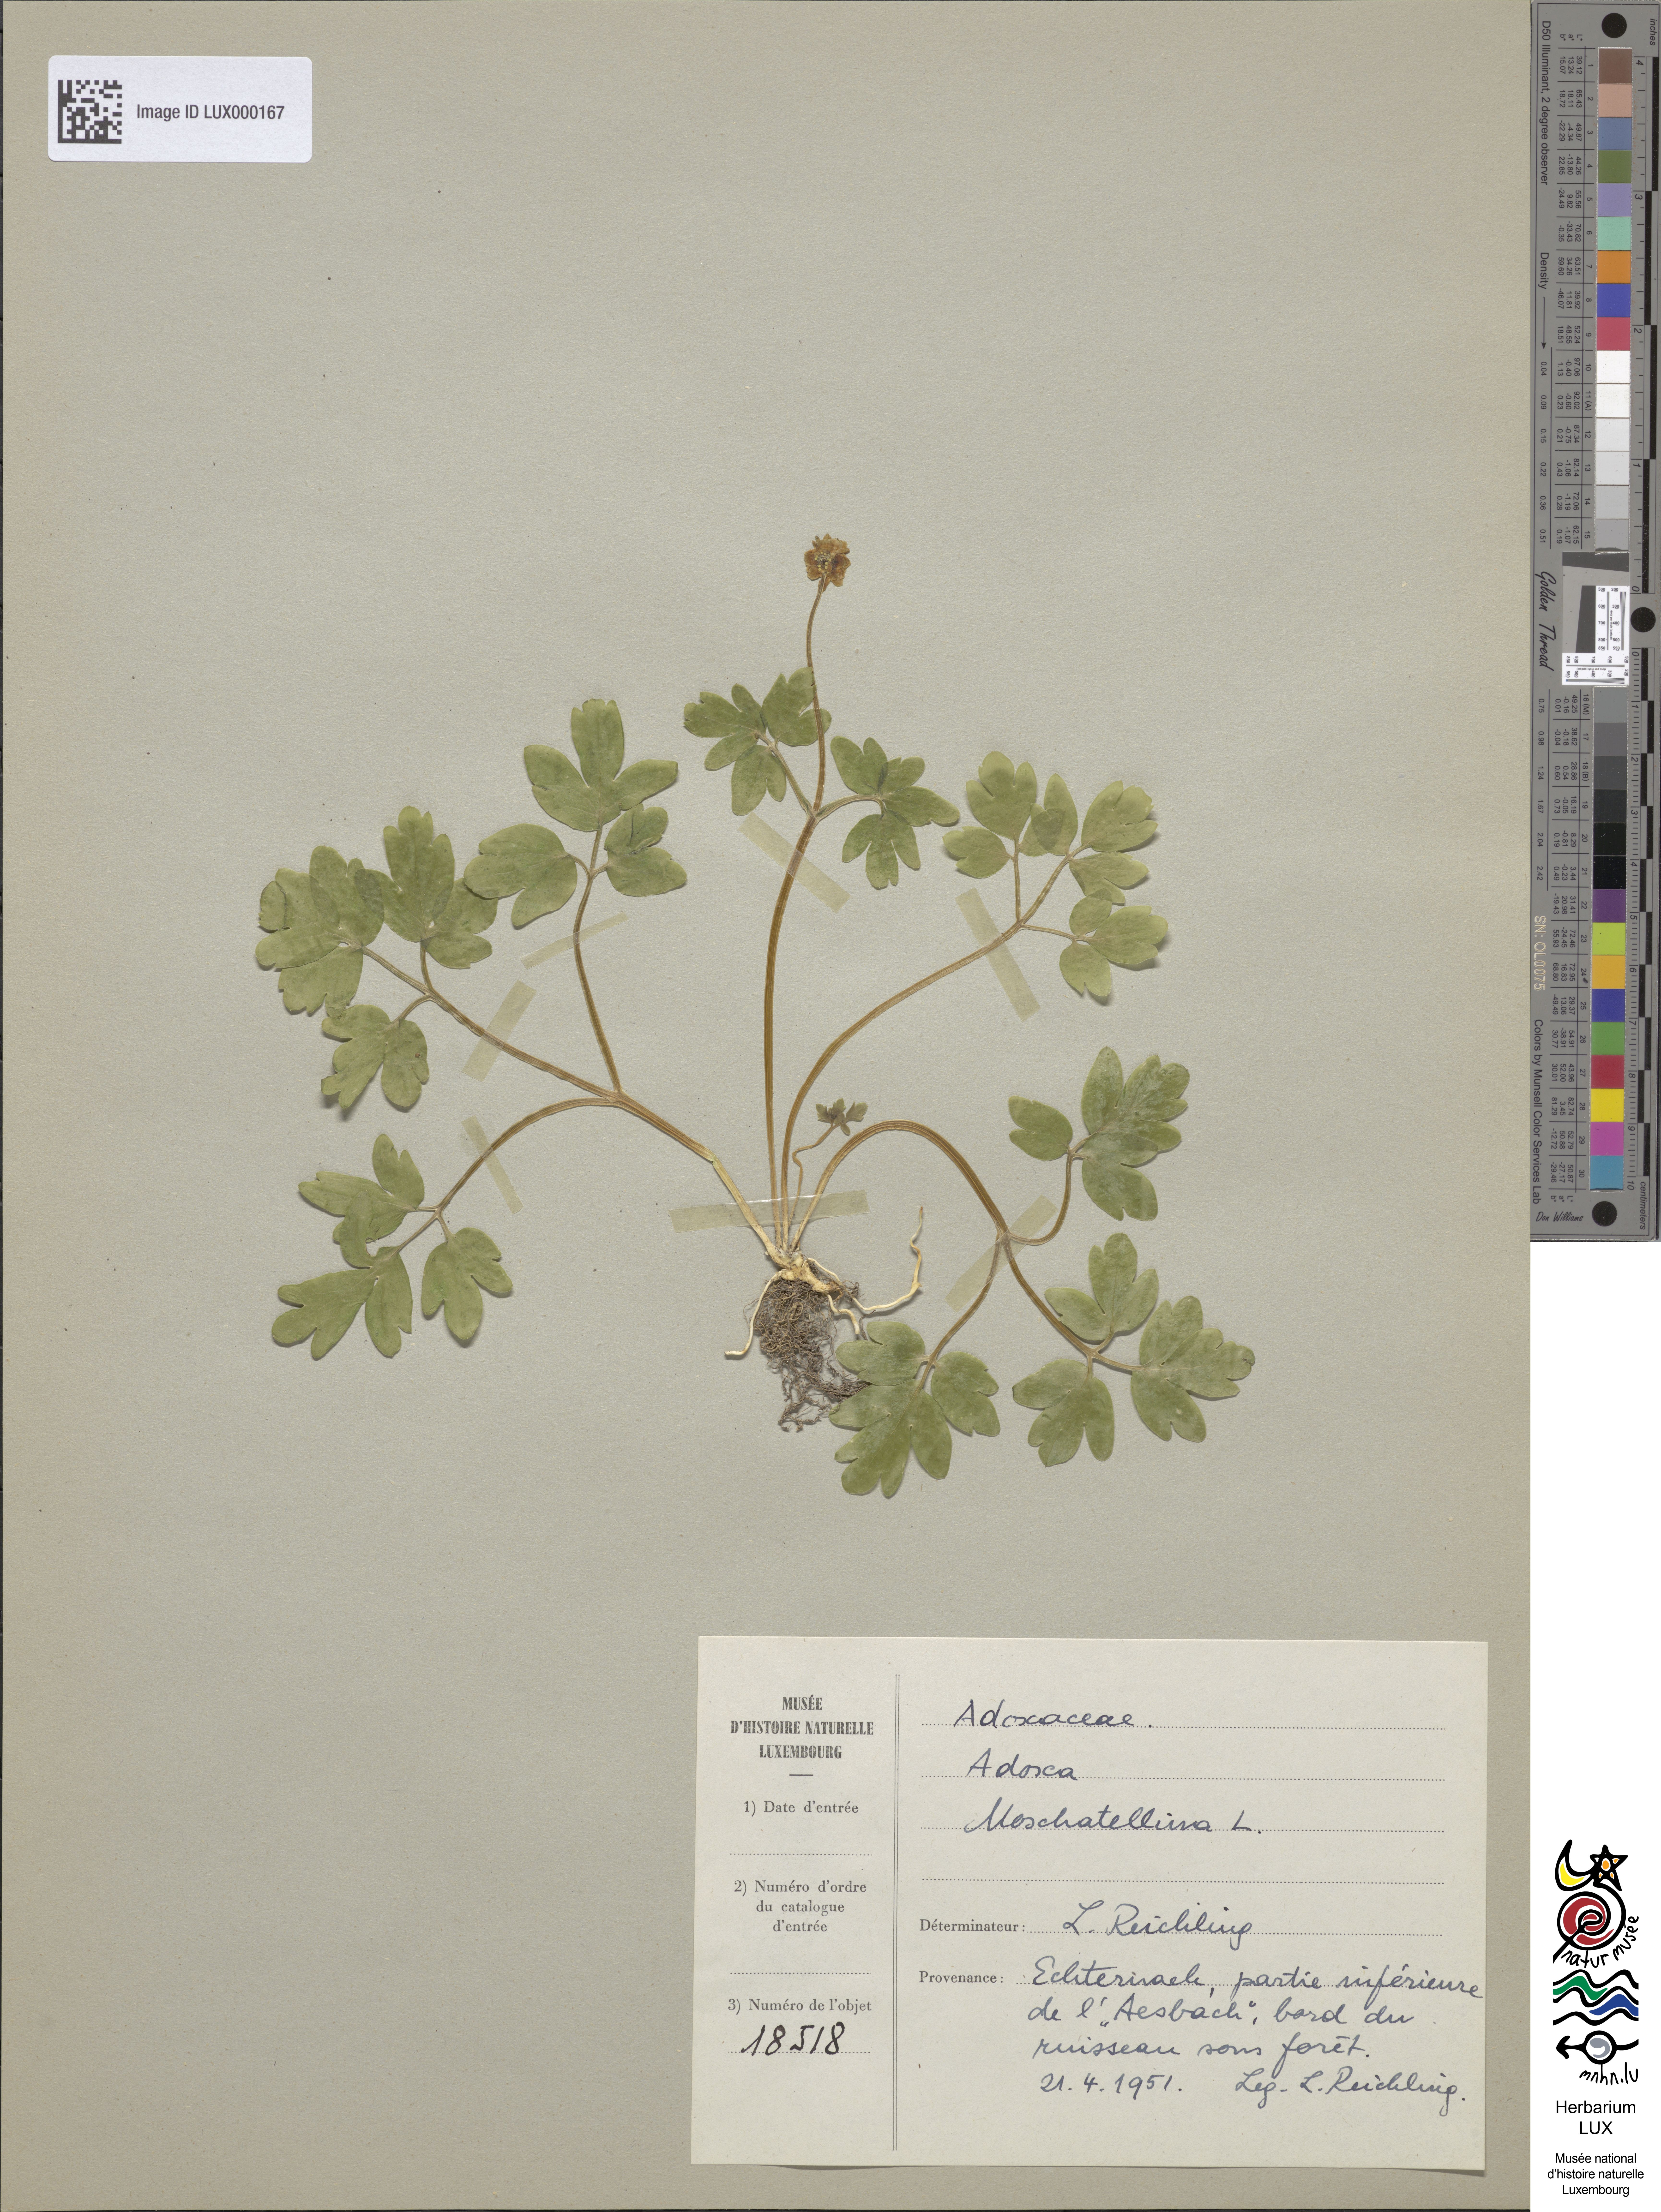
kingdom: Plantae
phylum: Tracheophyta
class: Magnoliopsida
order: Dipsacales
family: Viburnaceae
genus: Adoxa
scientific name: Adoxa moschatellina
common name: Moschatel
